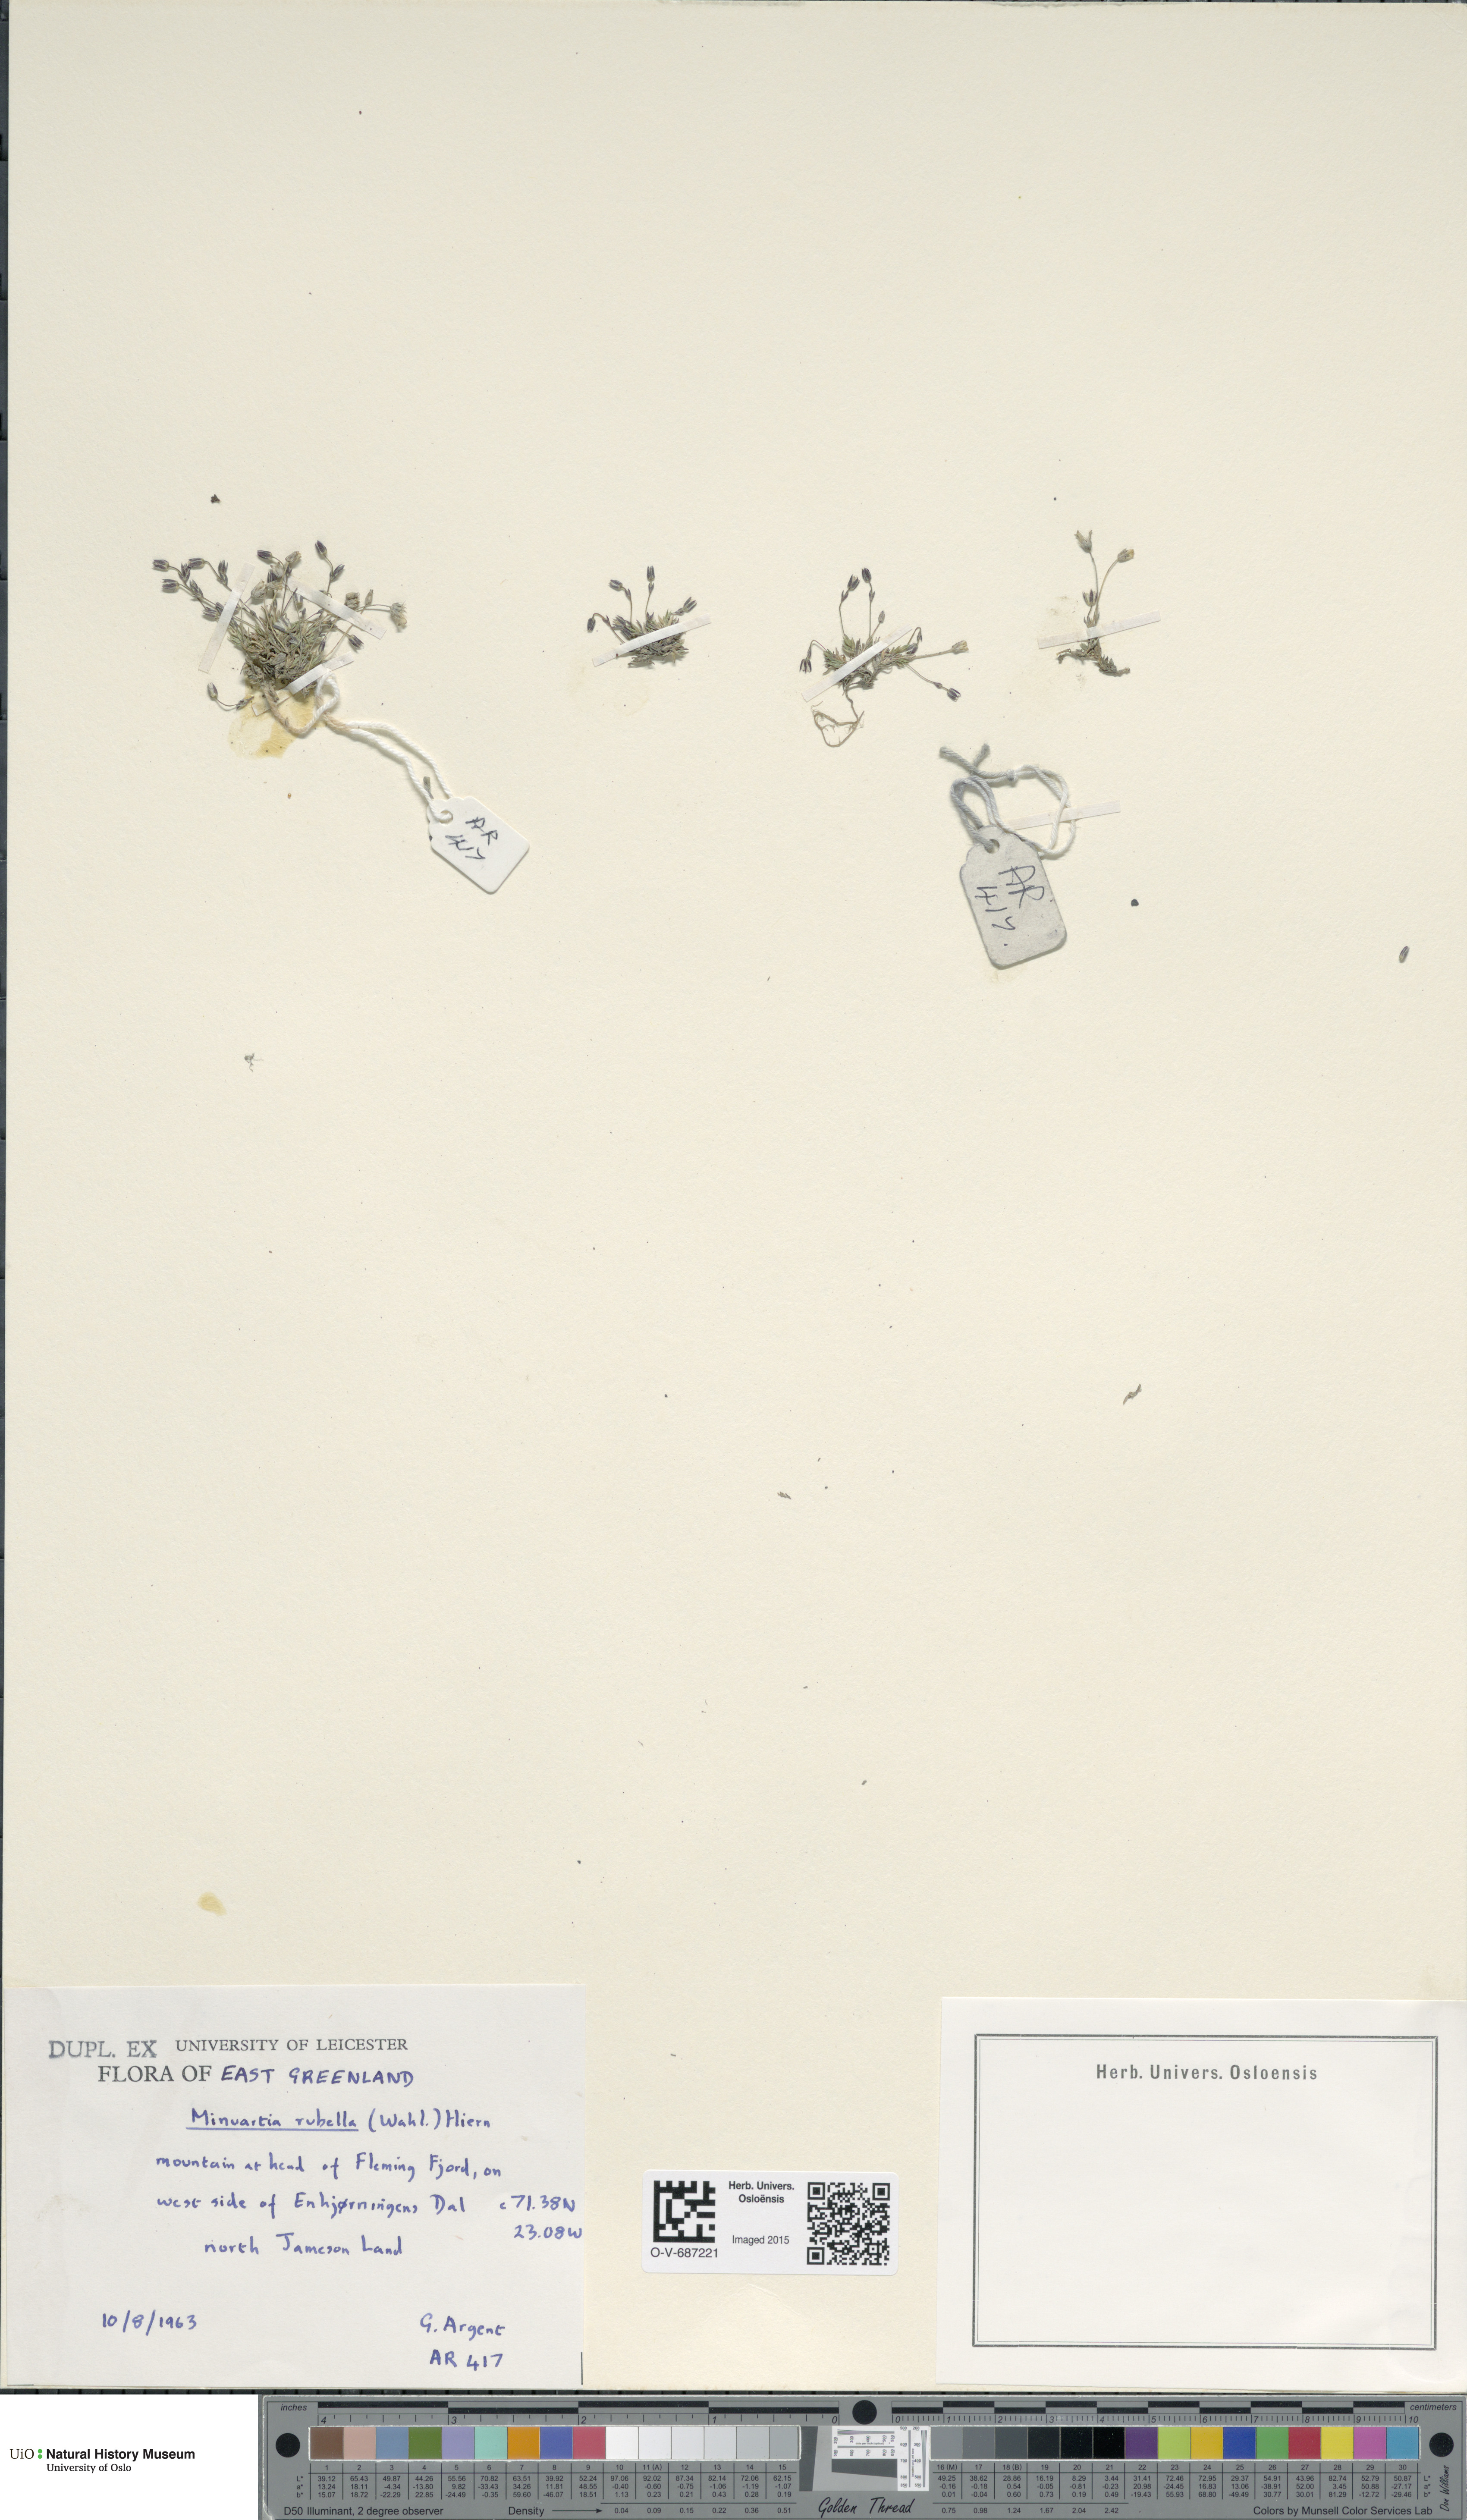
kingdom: Plantae
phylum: Tracheophyta
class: Magnoliopsida
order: Caryophyllales
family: Caryophyllaceae
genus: Sabulina
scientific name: Sabulina rubella
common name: Beautiful sandwort
